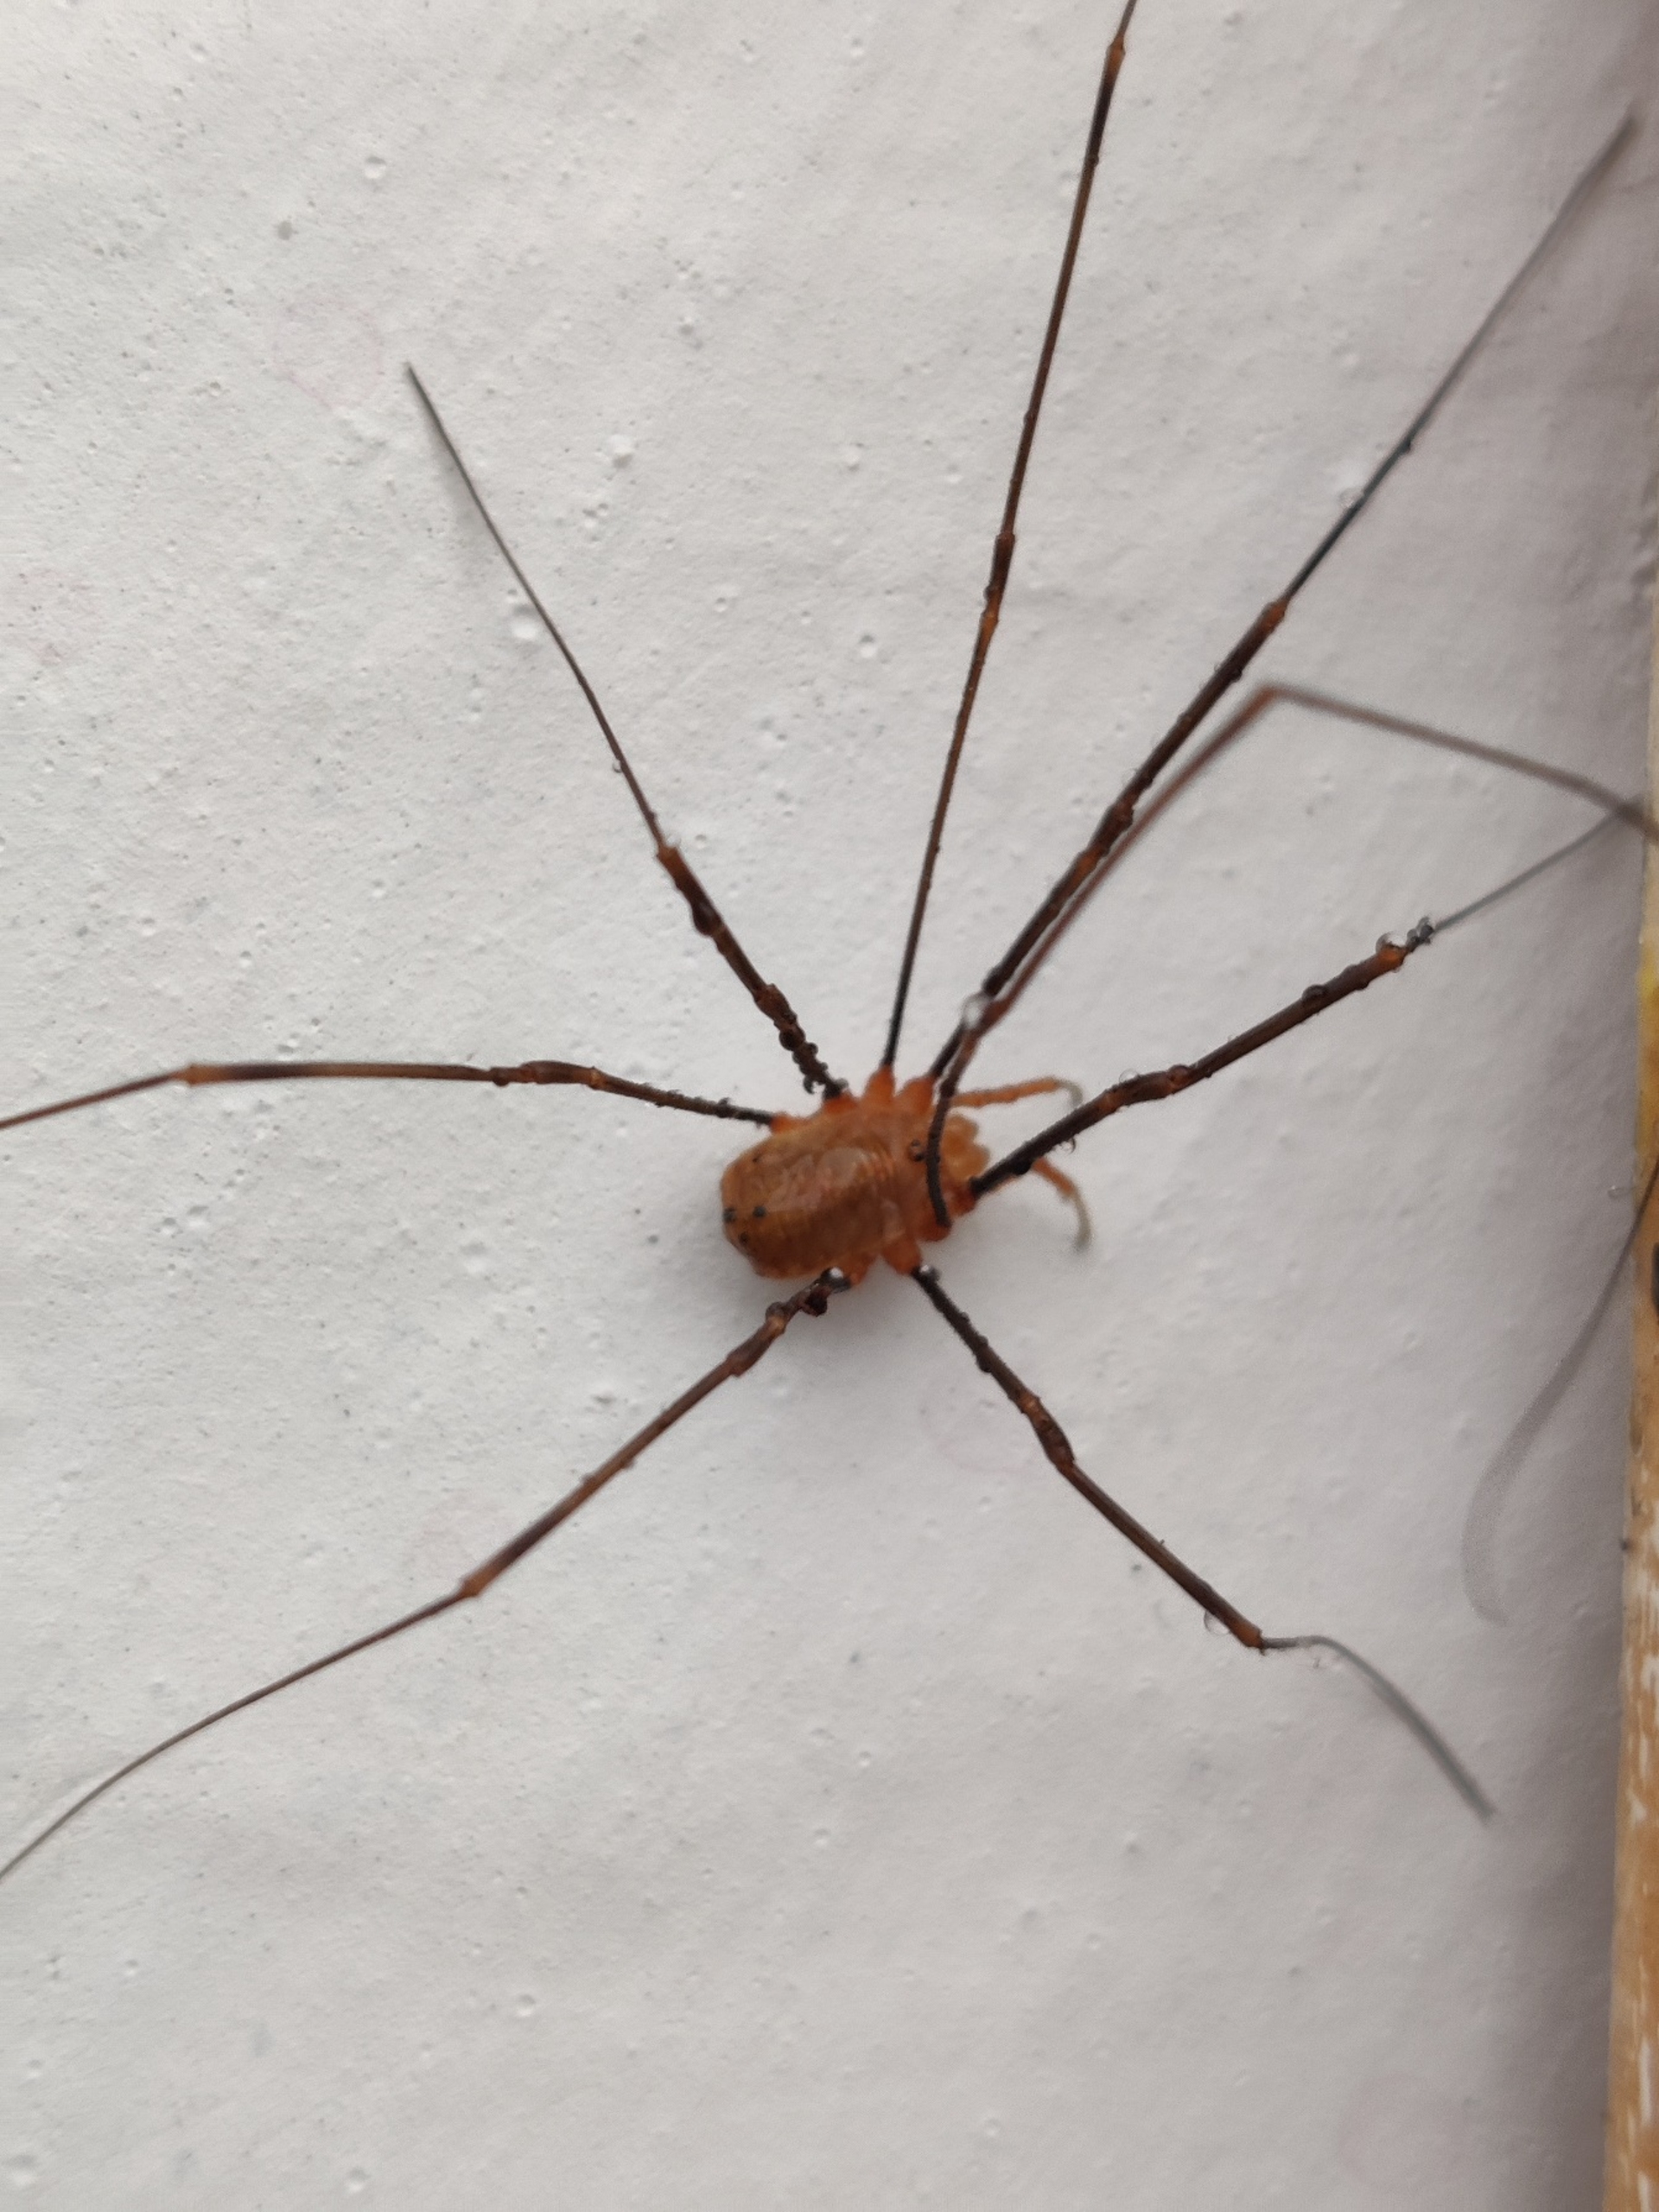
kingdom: Animalia
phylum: Arthropoda
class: Arachnida
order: Opiliones
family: Phalangiidae
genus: Opilio
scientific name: Opilio canestrinii
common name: Orange vægmejer
